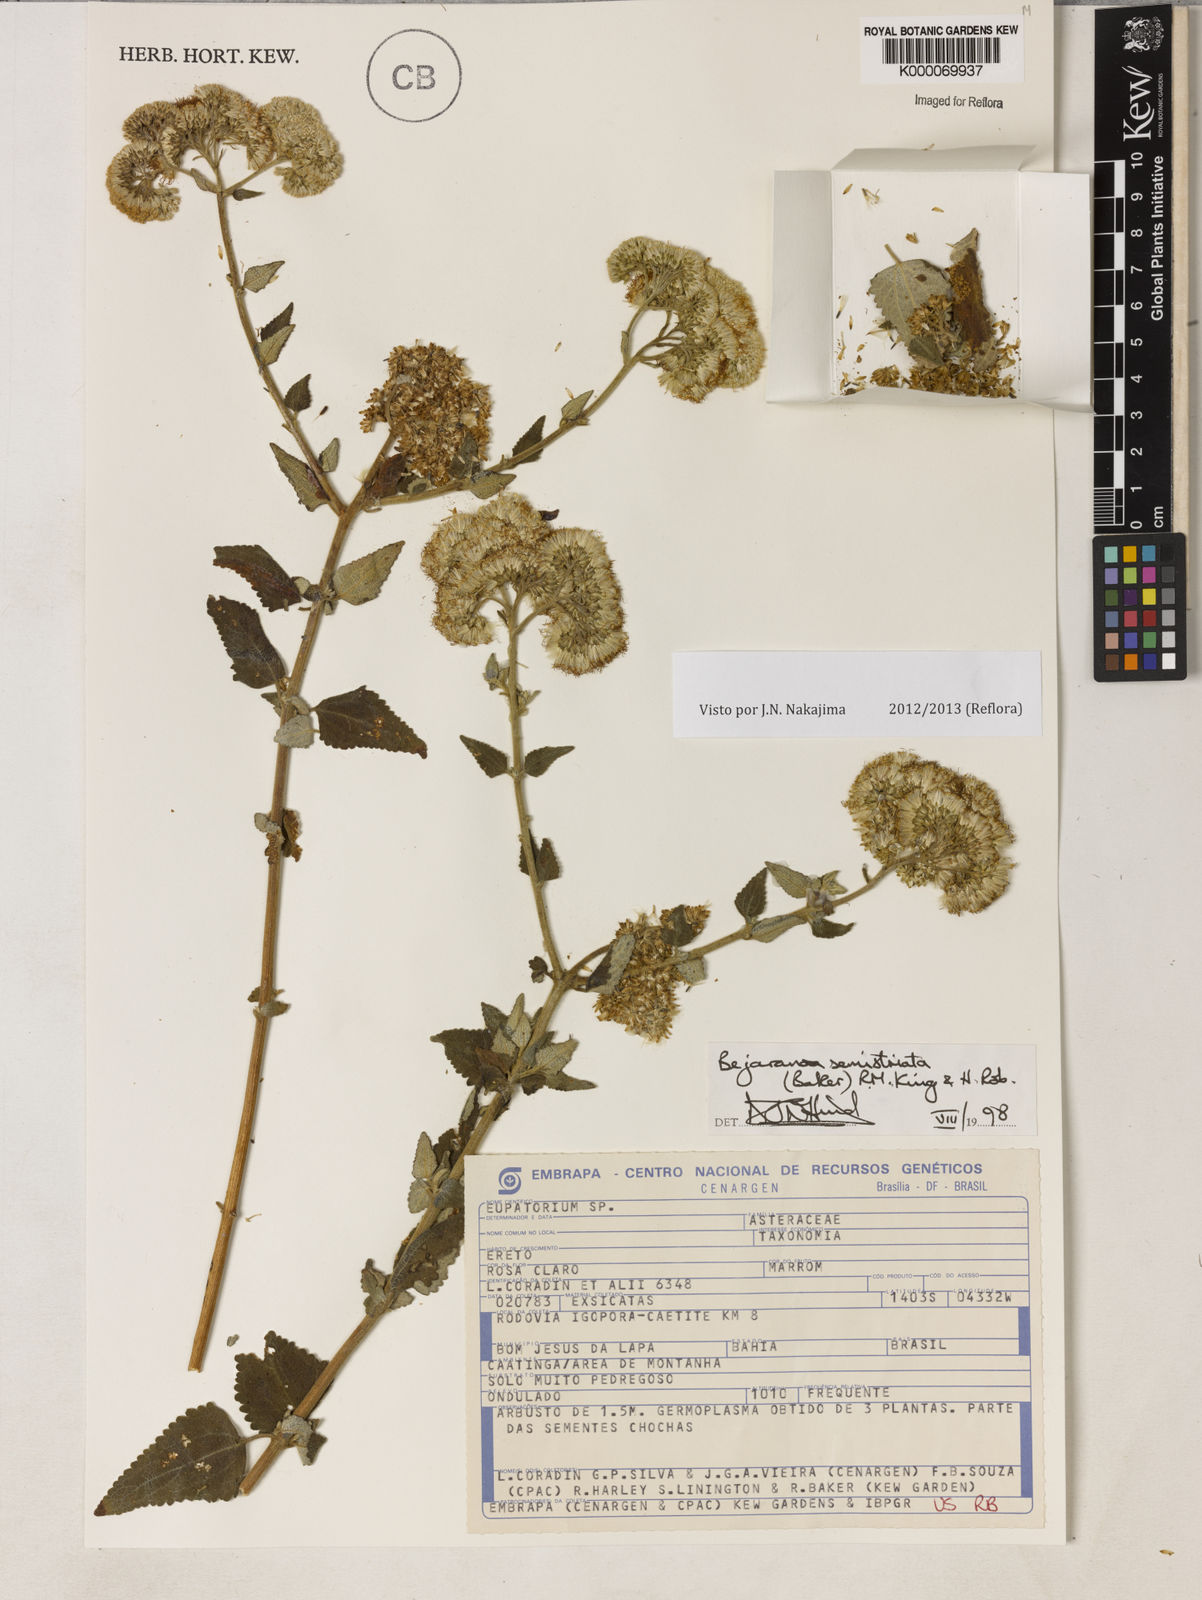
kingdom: Plantae
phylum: Tracheophyta
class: Magnoliopsida
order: Asterales
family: Asteraceae
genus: Bejaranoa
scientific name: Bejaranoa semistriata
